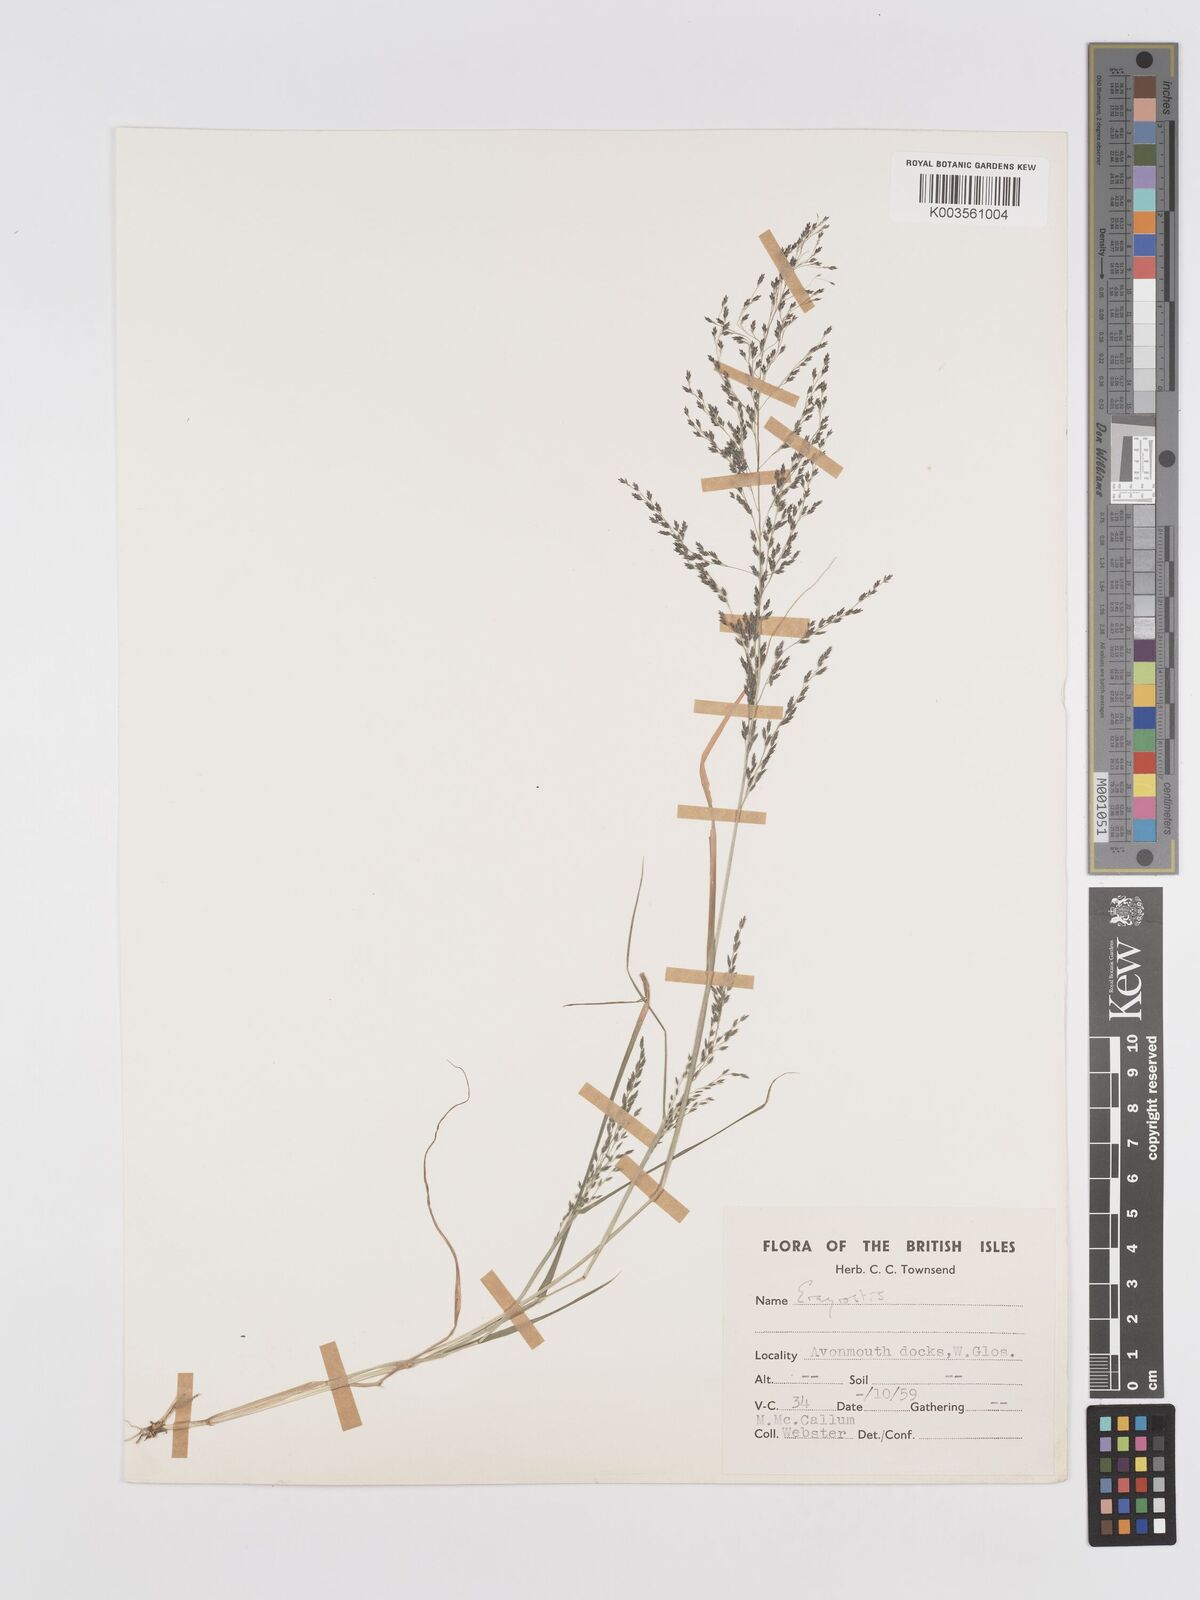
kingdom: Plantae
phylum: Tracheophyta
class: Liliopsida
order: Poales
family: Poaceae
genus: Eragrostis
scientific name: Eragrostis
